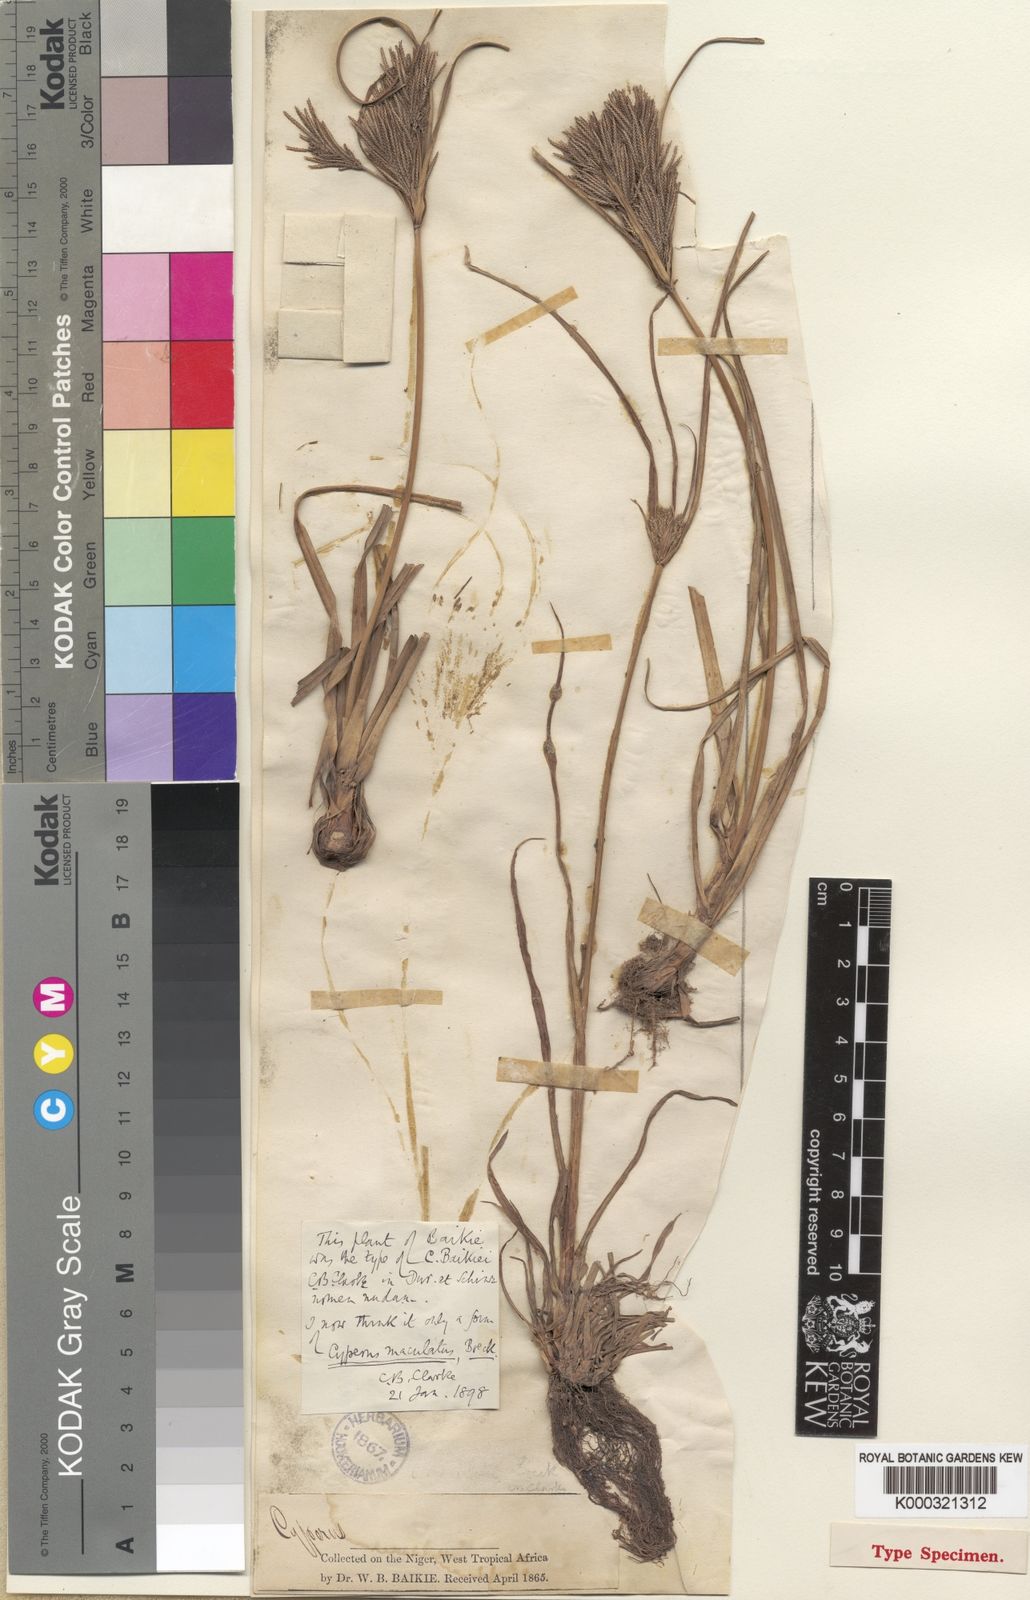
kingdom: Plantae
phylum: Tracheophyta
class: Liliopsida
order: Poales
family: Cyperaceae
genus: Cyperus
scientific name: Cyperus
